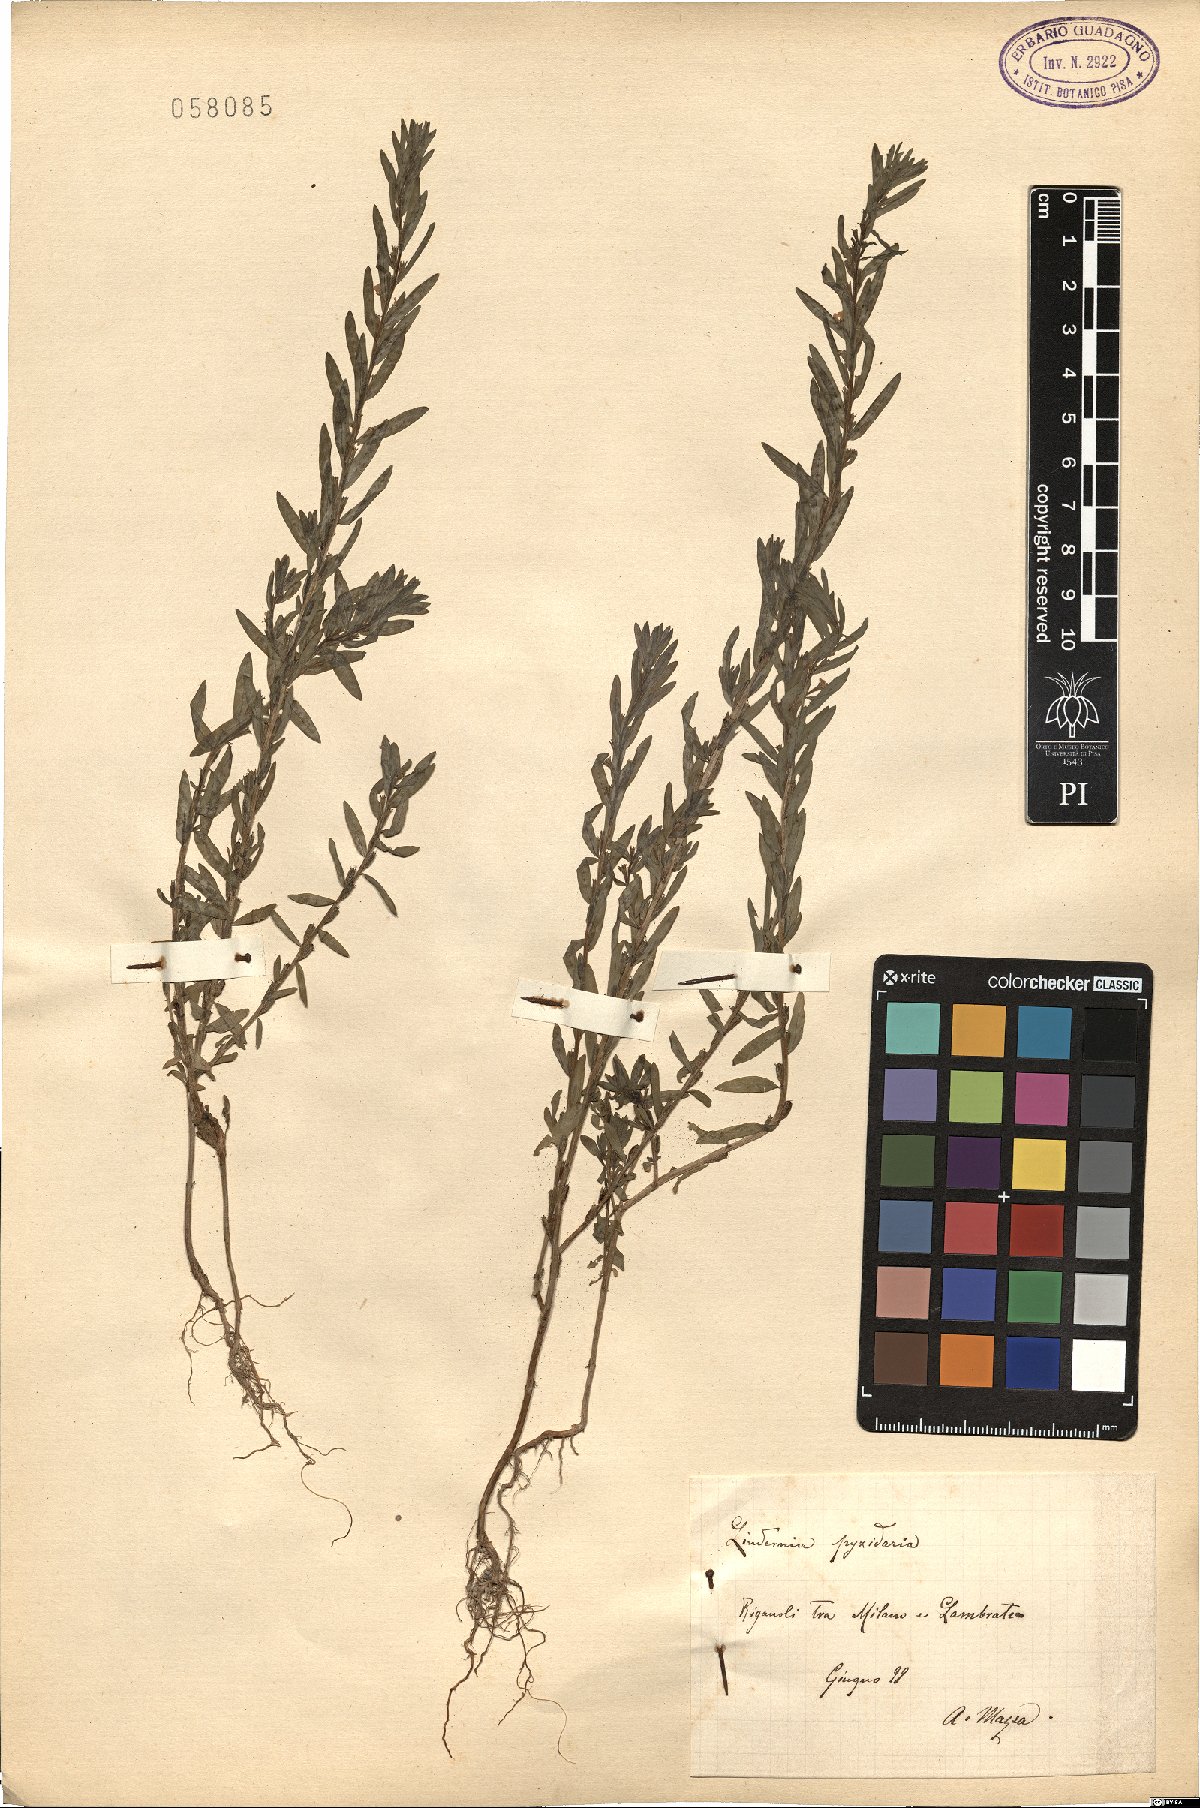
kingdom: Plantae
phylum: Tracheophyta
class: Magnoliopsida
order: Lamiales
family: Linderniaceae
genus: Lindernia
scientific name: Lindernia dubia
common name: Annual false pimpernel
